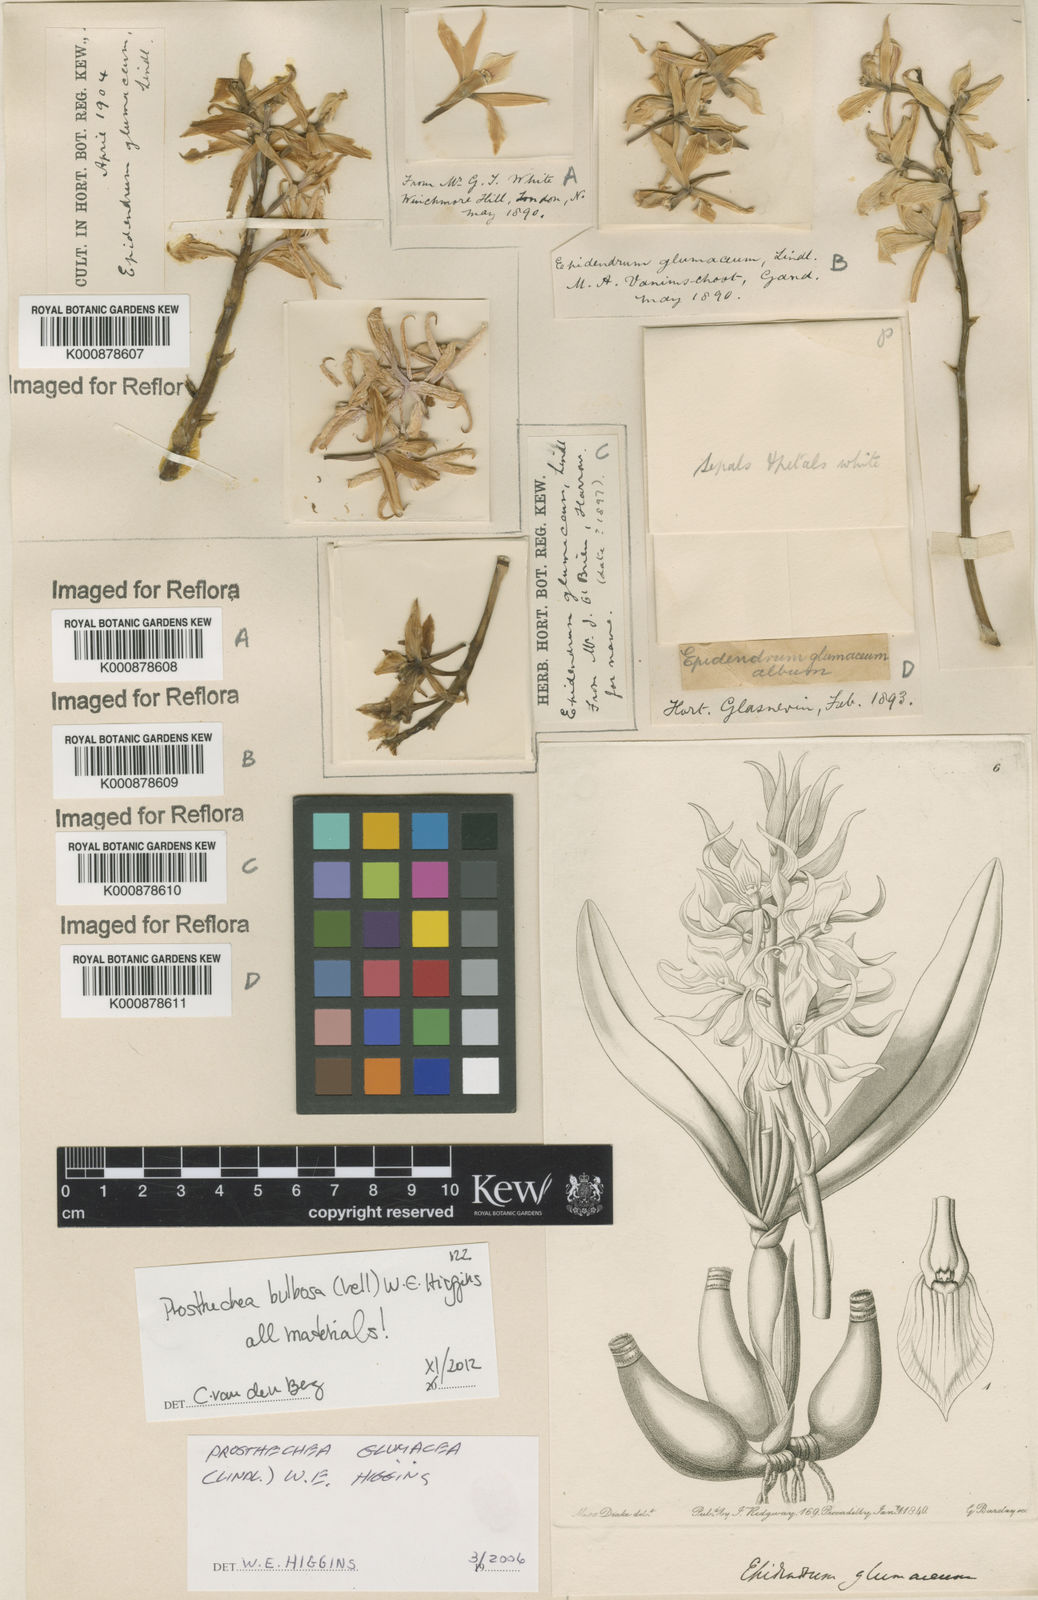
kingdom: Plantae
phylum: Tracheophyta
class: Liliopsida
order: Asparagales
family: Orchidaceae
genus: Prosthechea
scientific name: Prosthechea bulbosa
